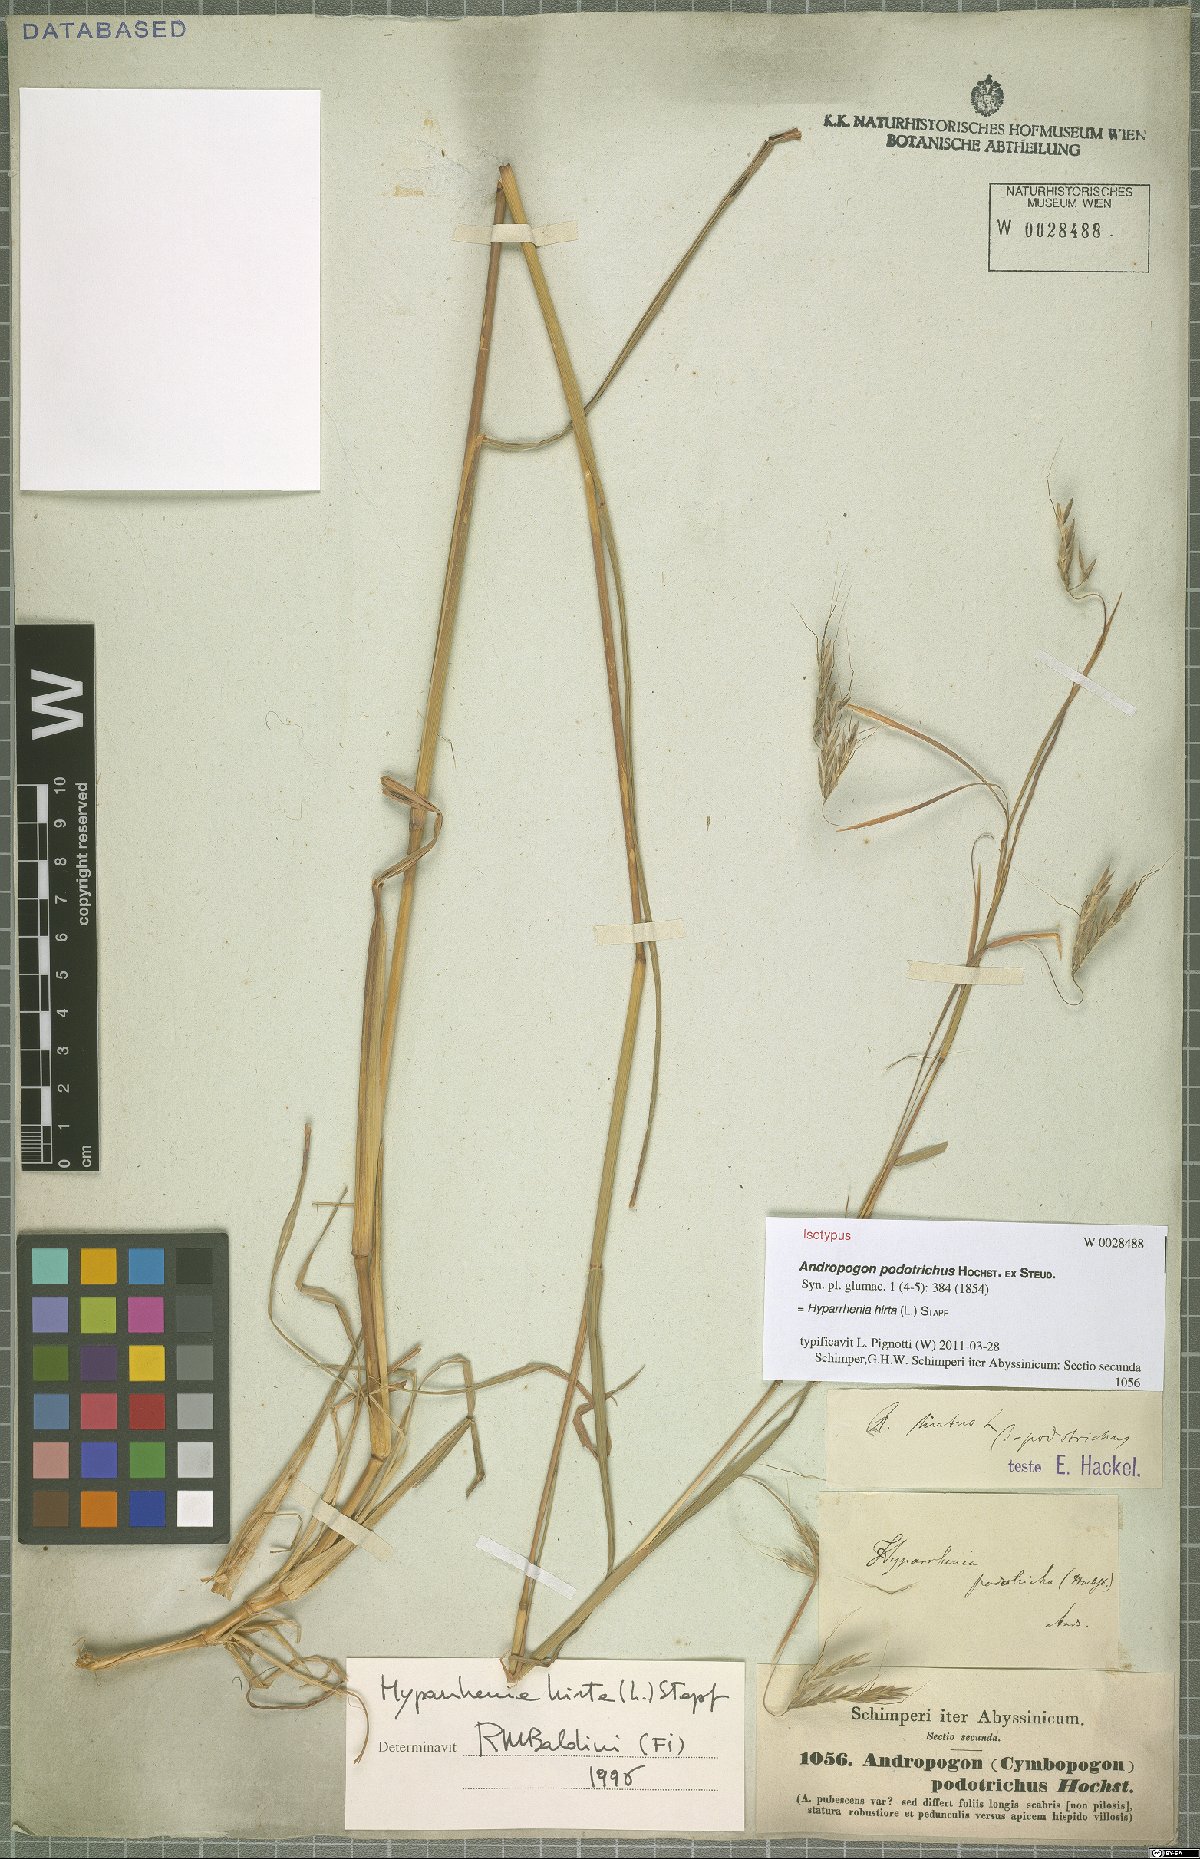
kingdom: Plantae
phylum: Tracheophyta
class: Liliopsida
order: Poales
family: Poaceae
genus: Hyparrhenia
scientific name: Hyparrhenia hirta
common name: Thatching grass
